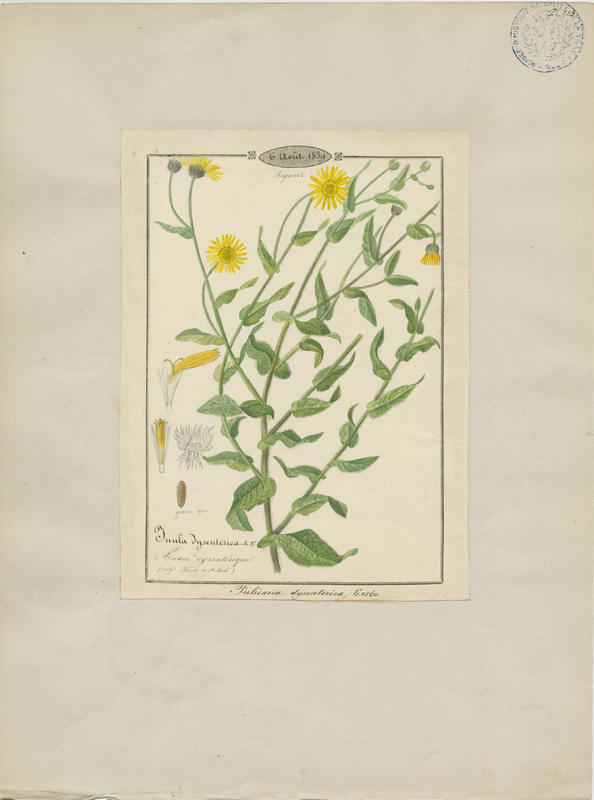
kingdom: Plantae
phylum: Tracheophyta
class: Magnoliopsida
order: Asterales
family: Asteraceae
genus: Pulicaria
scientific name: Pulicaria dysenterica
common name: Common fleabane
